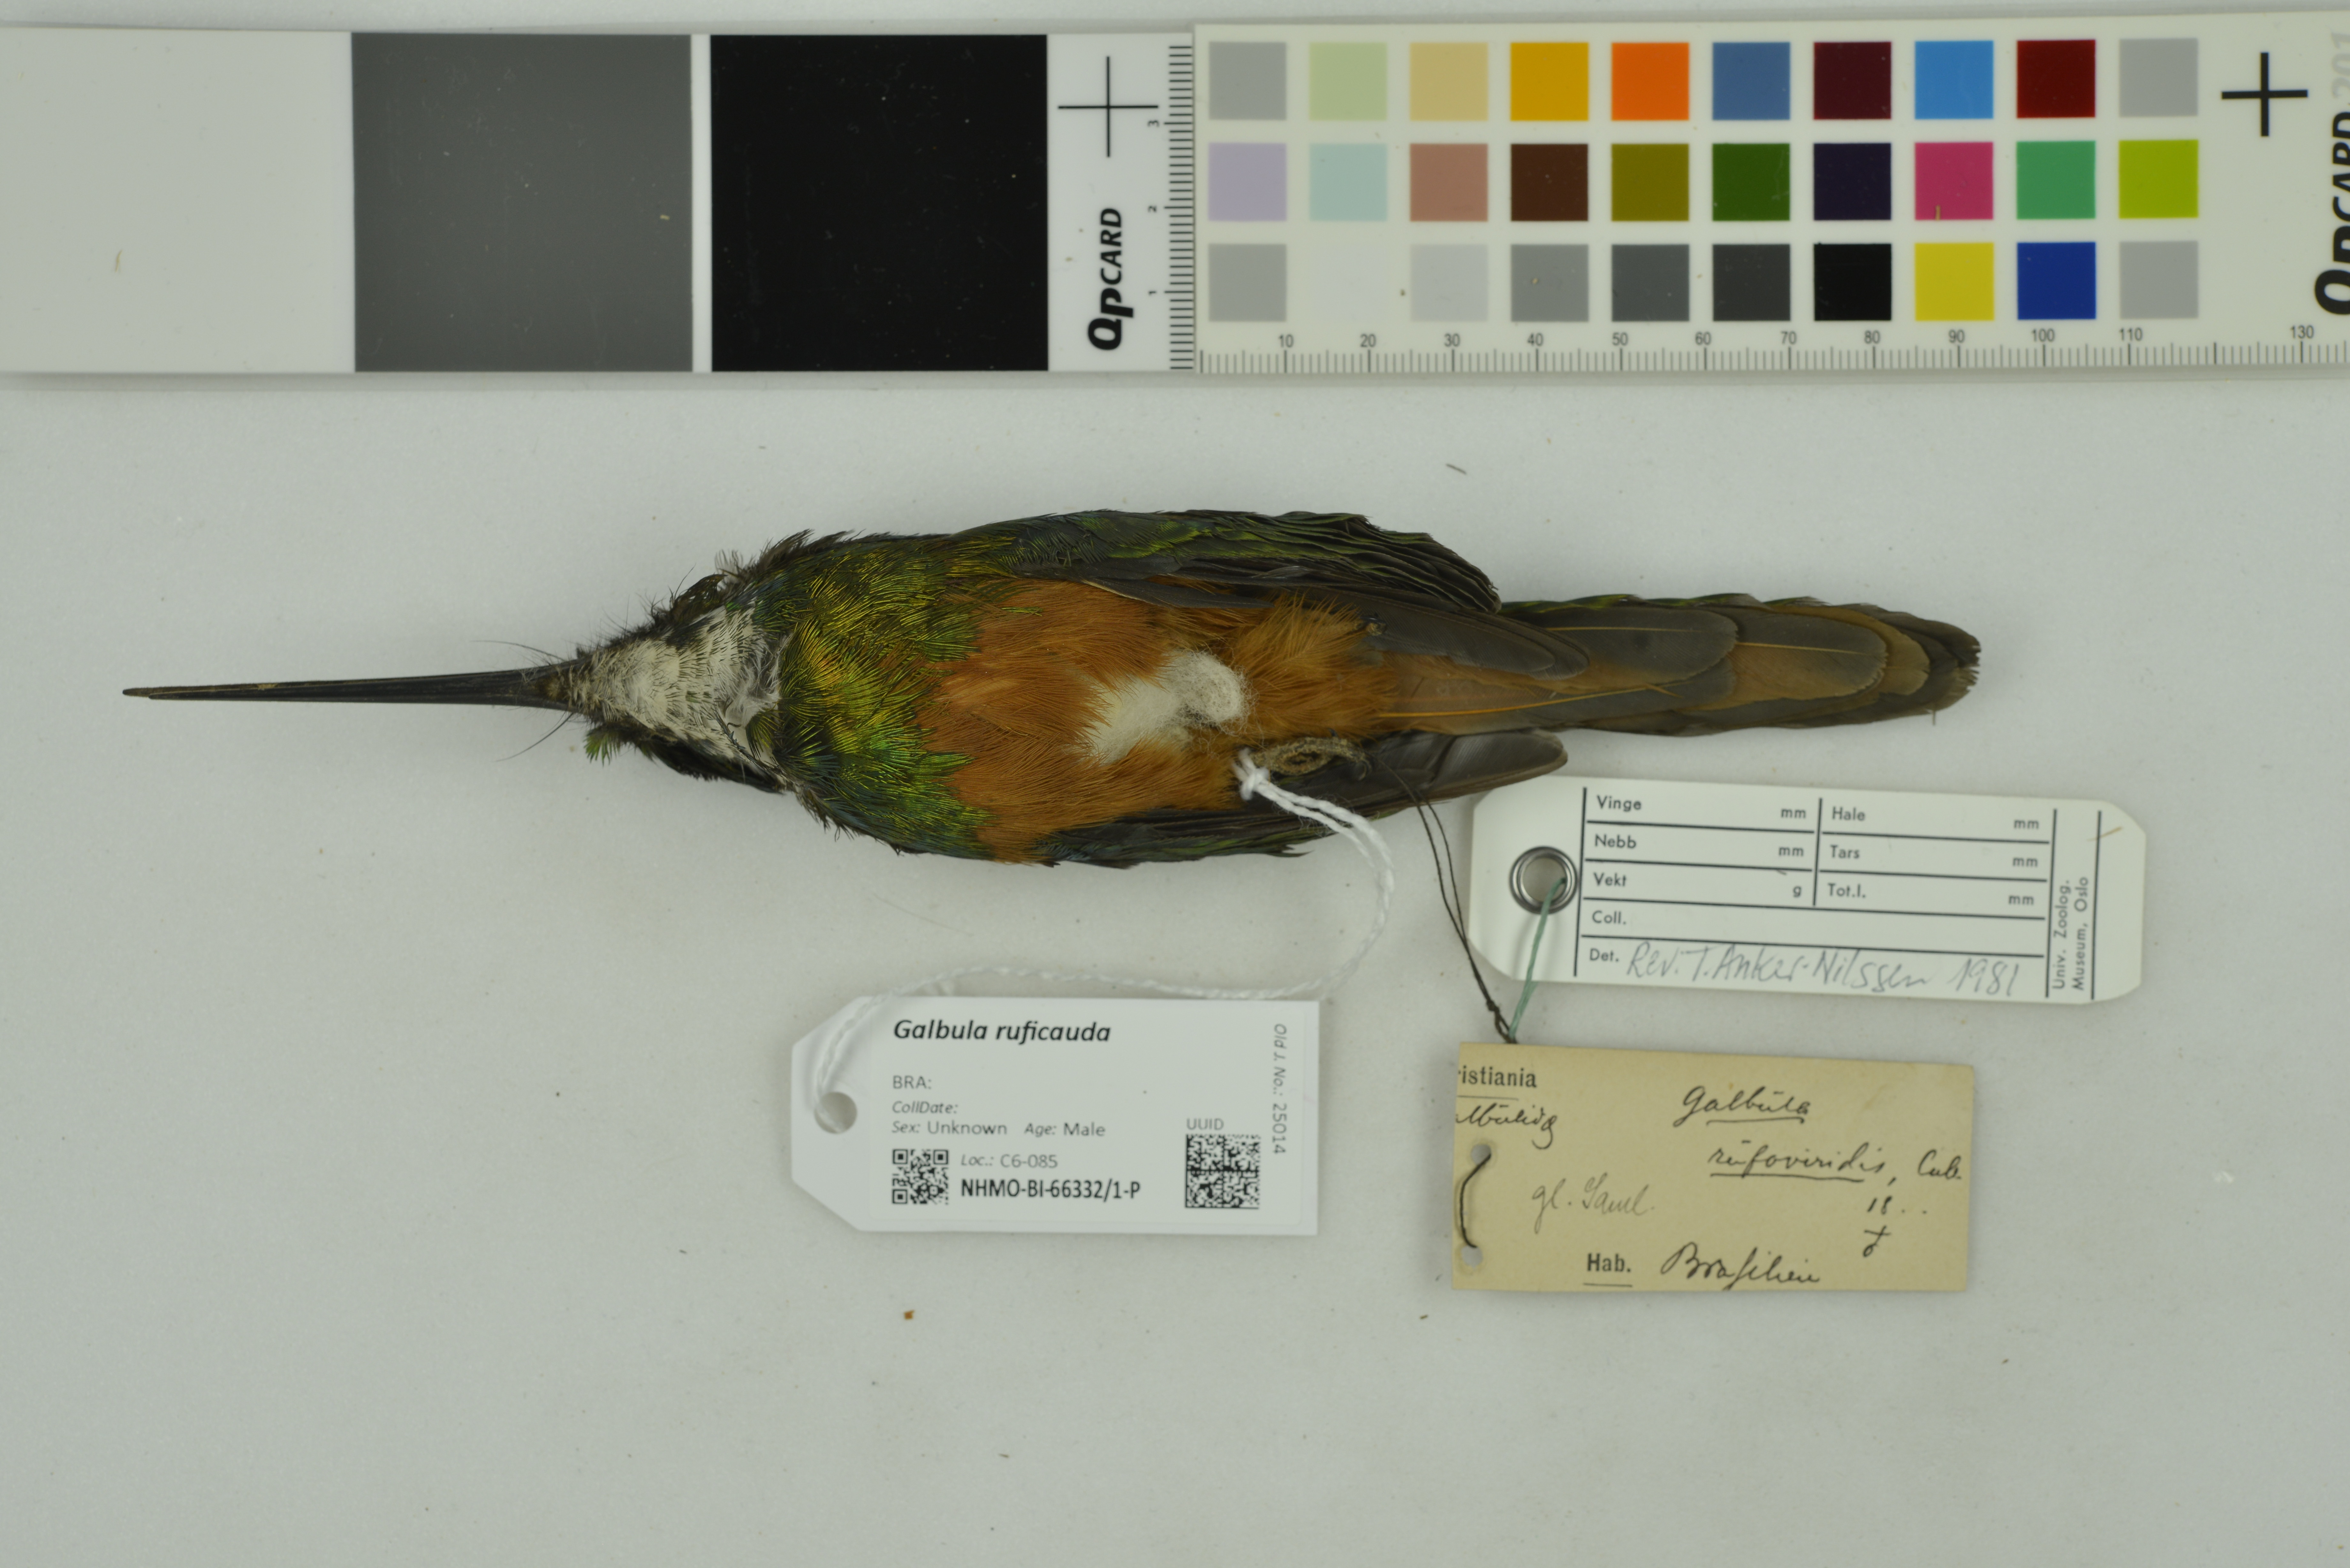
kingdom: Animalia
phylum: Chordata
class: Aves
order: Piciformes
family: Galbulidae
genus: Galbula
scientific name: Galbula ruficauda
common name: Rufous-tailed jacamar
